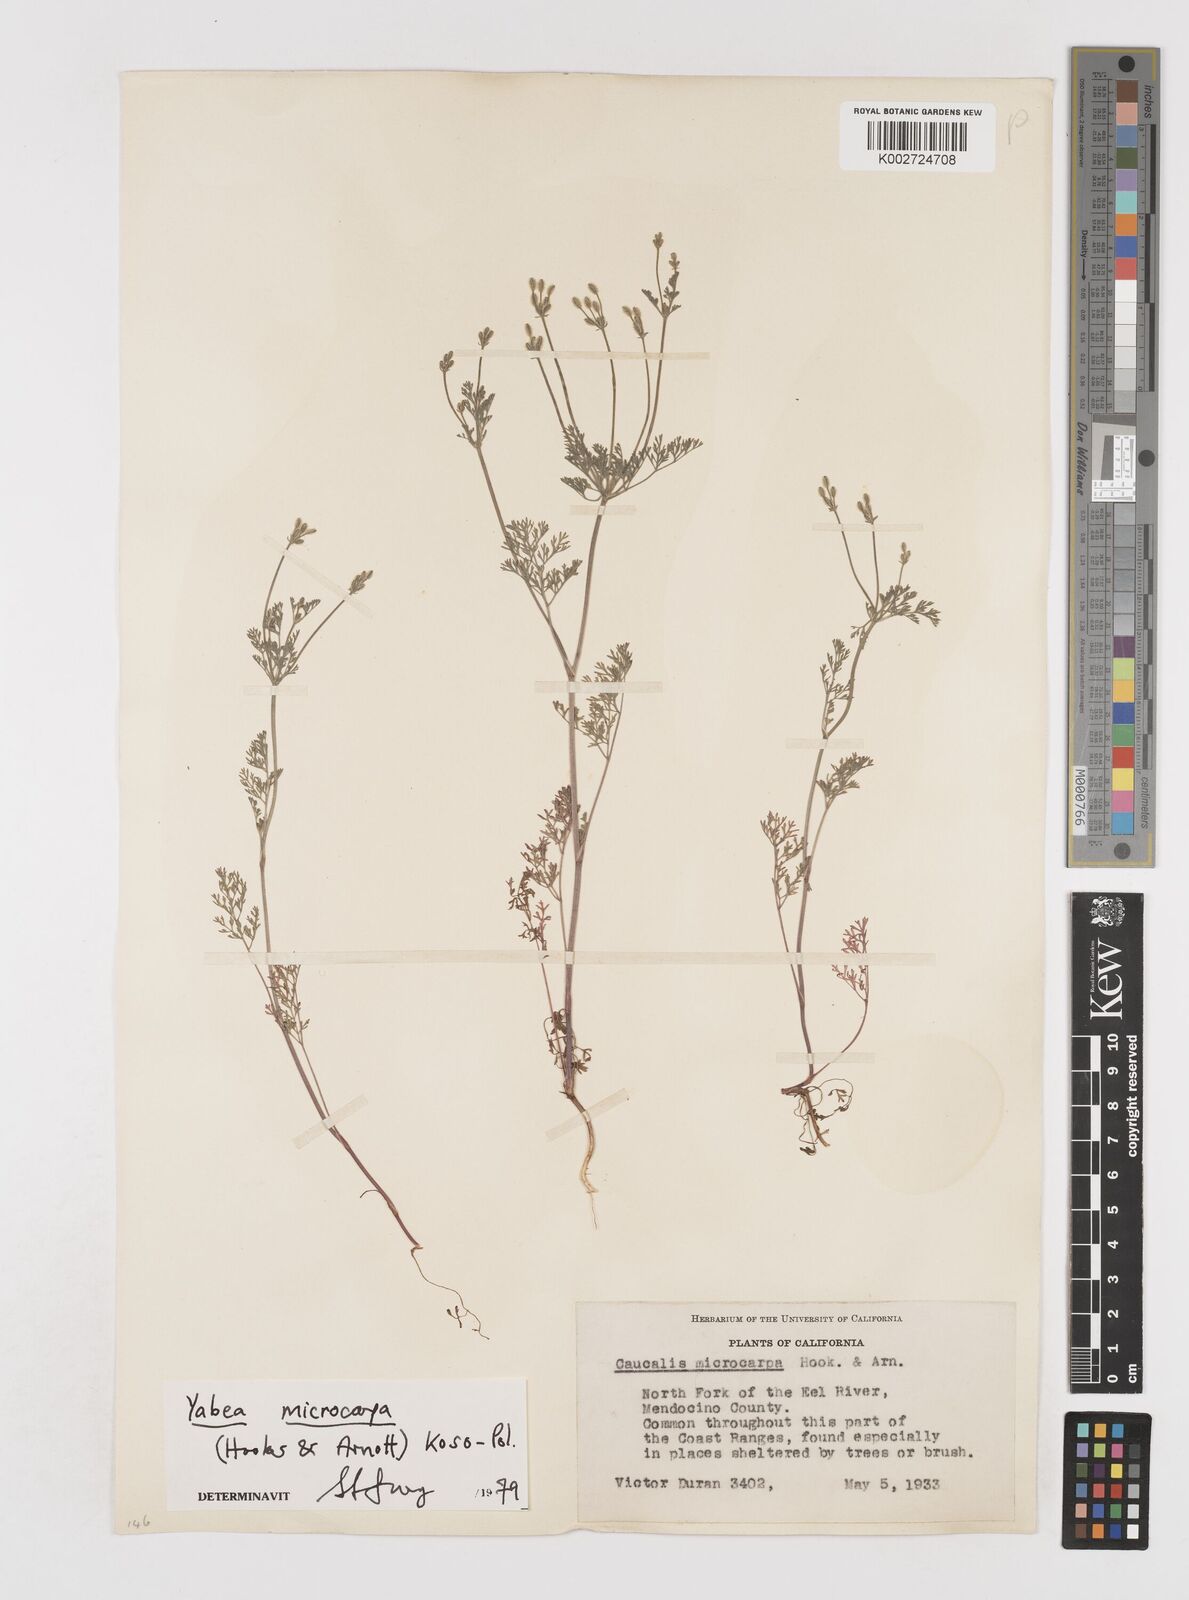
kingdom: Plantae
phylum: Tracheophyta
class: Magnoliopsida
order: Apiales
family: Apiaceae
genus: Yabea
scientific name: Yabea microcarpa
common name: False carrot
